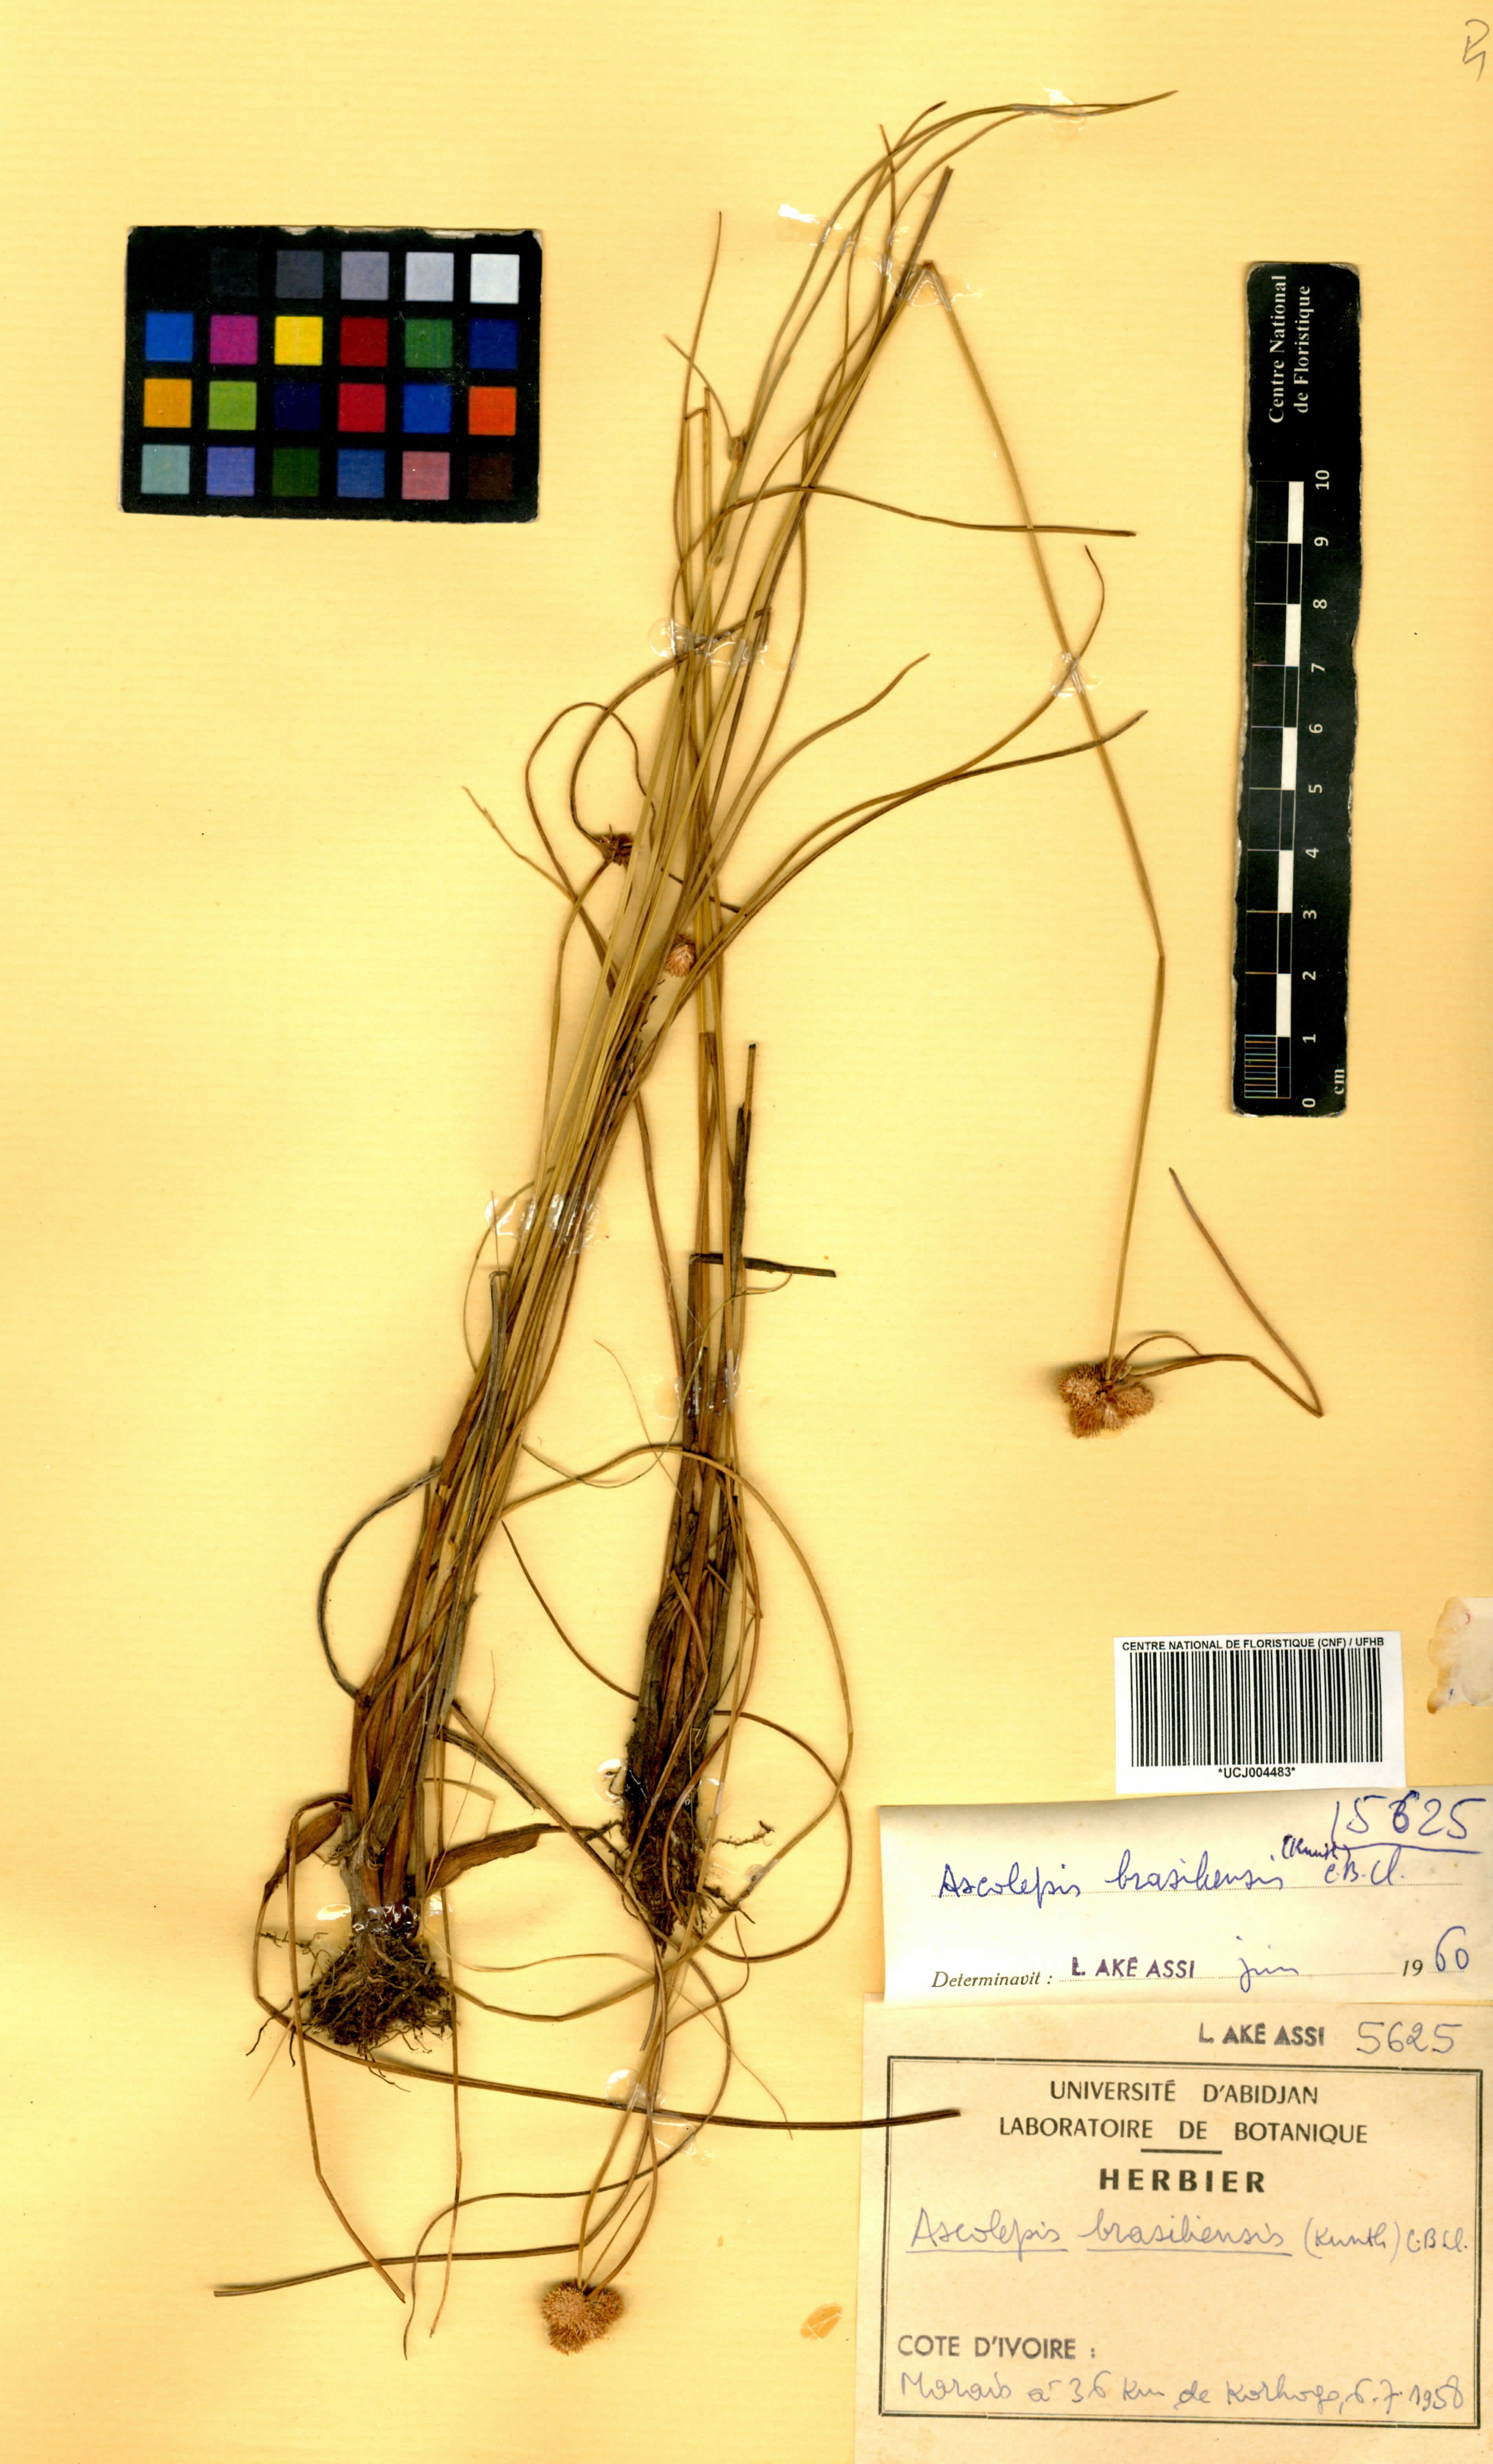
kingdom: Plantae
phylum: Tracheophyta
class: Liliopsida
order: Poales
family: Cyperaceae
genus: Cyperus
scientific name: Cyperus brasiliensis
